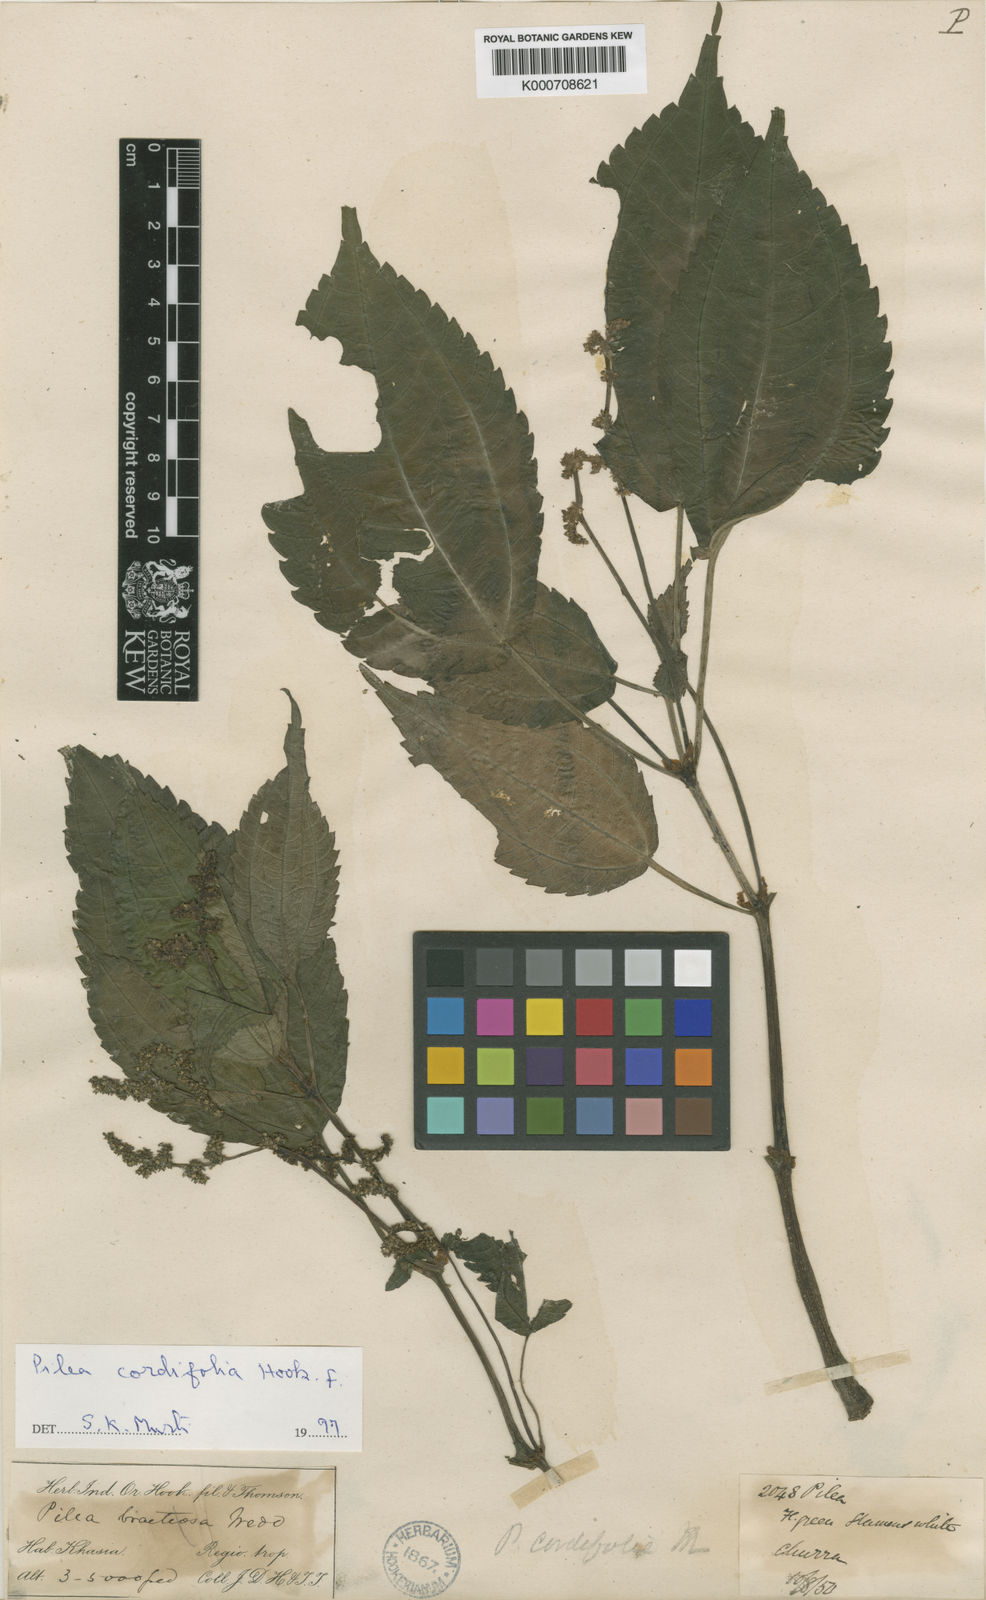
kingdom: Plantae
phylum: Tracheophyta
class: Magnoliopsida
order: Rosales
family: Urticaceae
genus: Pilea
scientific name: Pilea cordifolia
